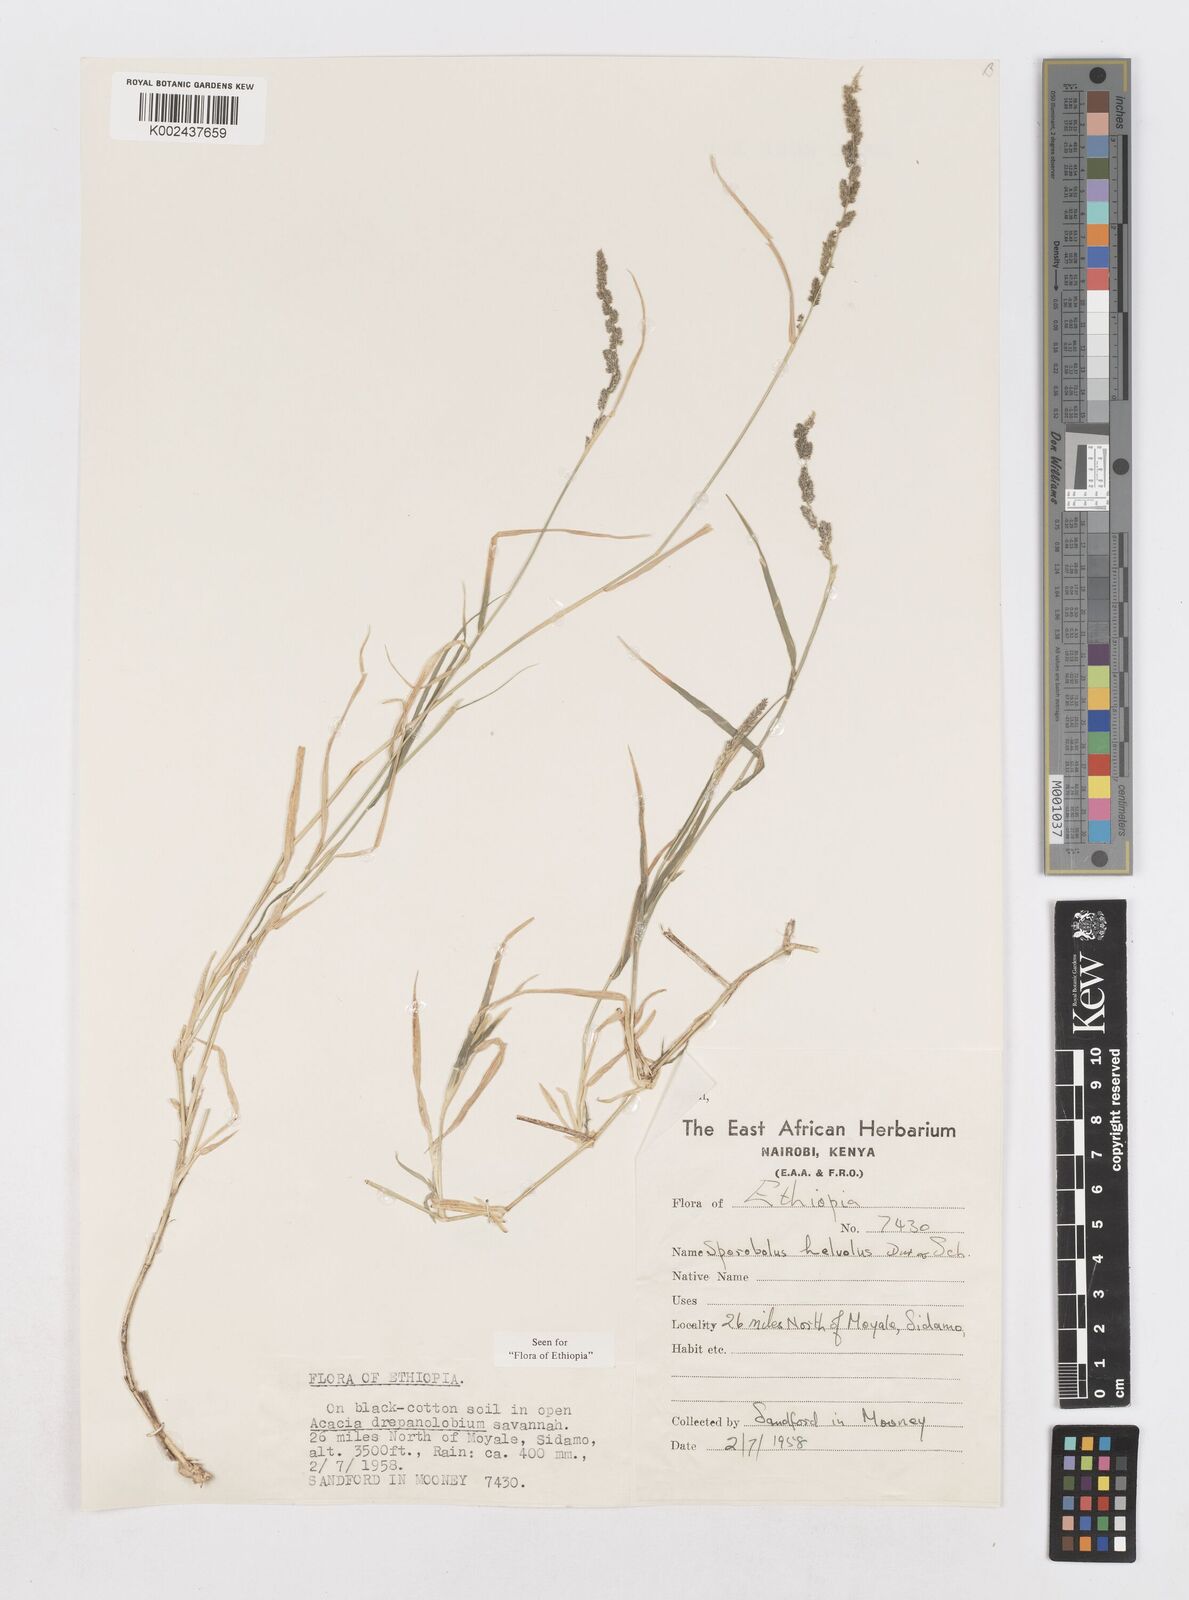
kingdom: Plantae
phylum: Tracheophyta
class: Liliopsida
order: Poales
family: Poaceae
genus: Sporobolus
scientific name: Sporobolus helvolus
